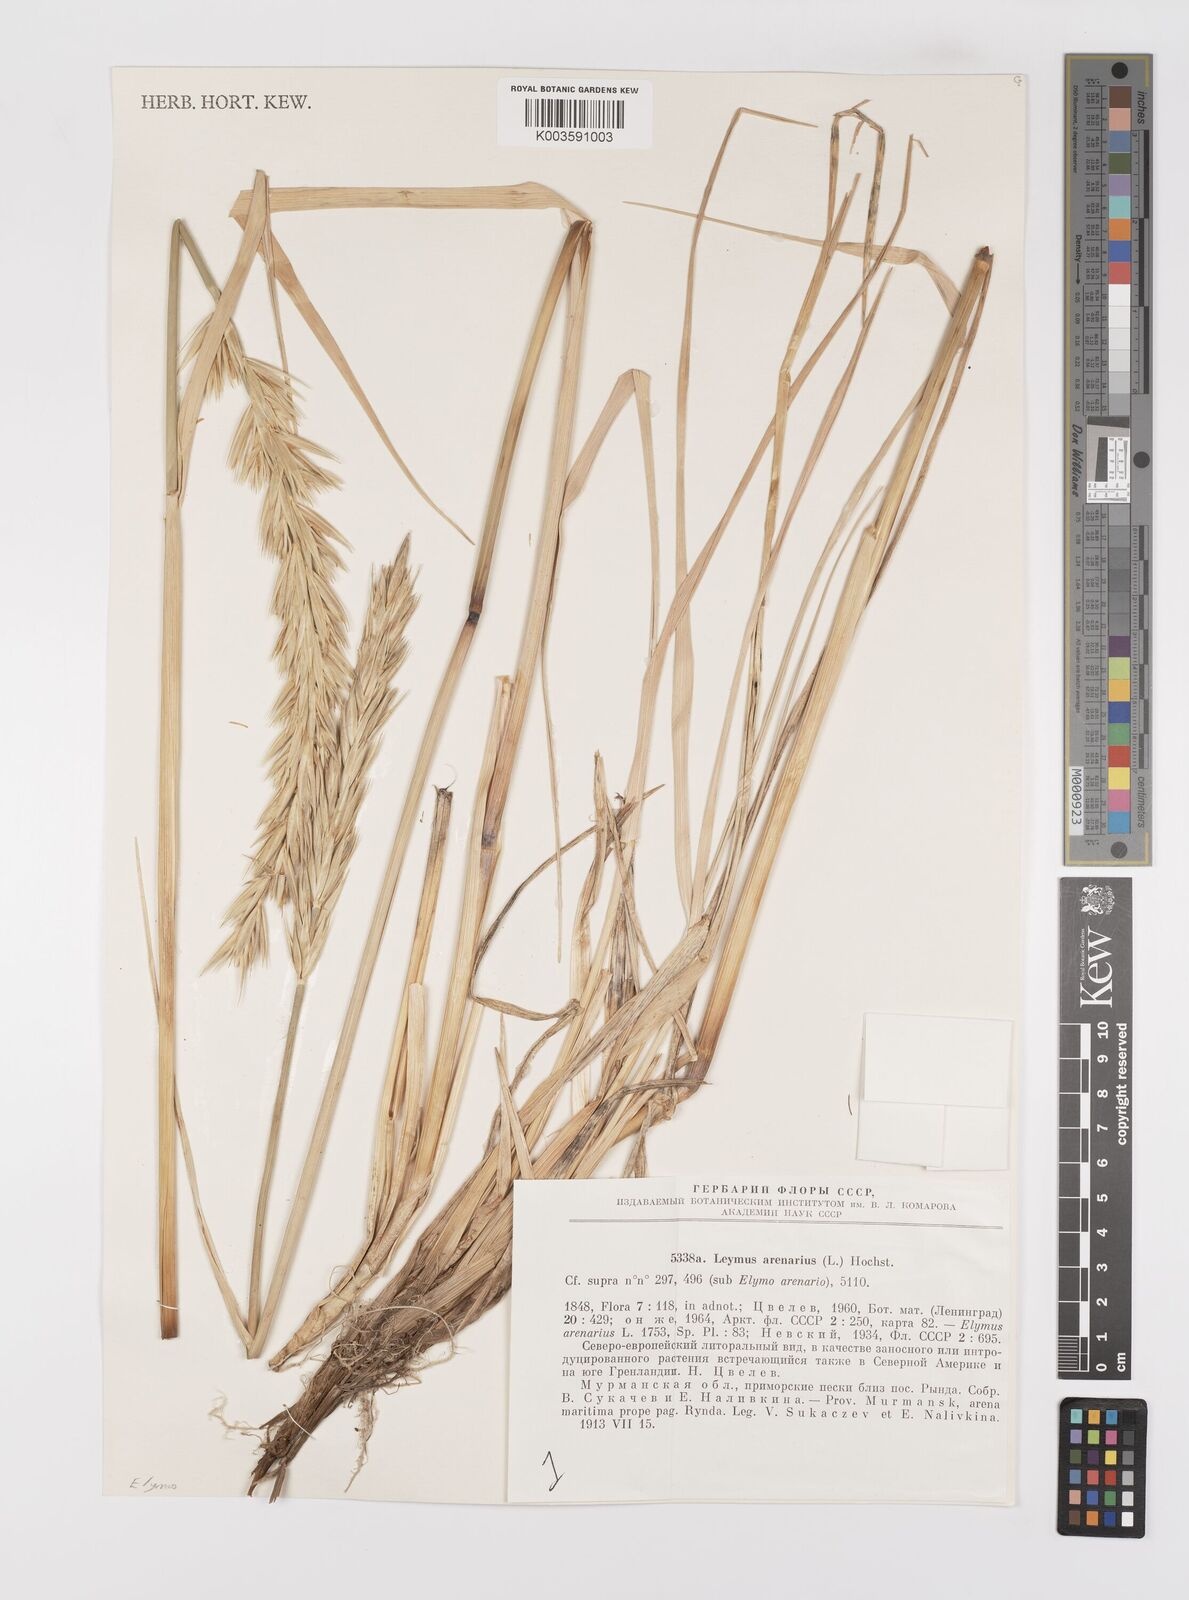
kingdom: Plantae
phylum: Tracheophyta
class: Liliopsida
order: Poales
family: Poaceae
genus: Leymus
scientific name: Leymus arenarius
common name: Lyme-grass
